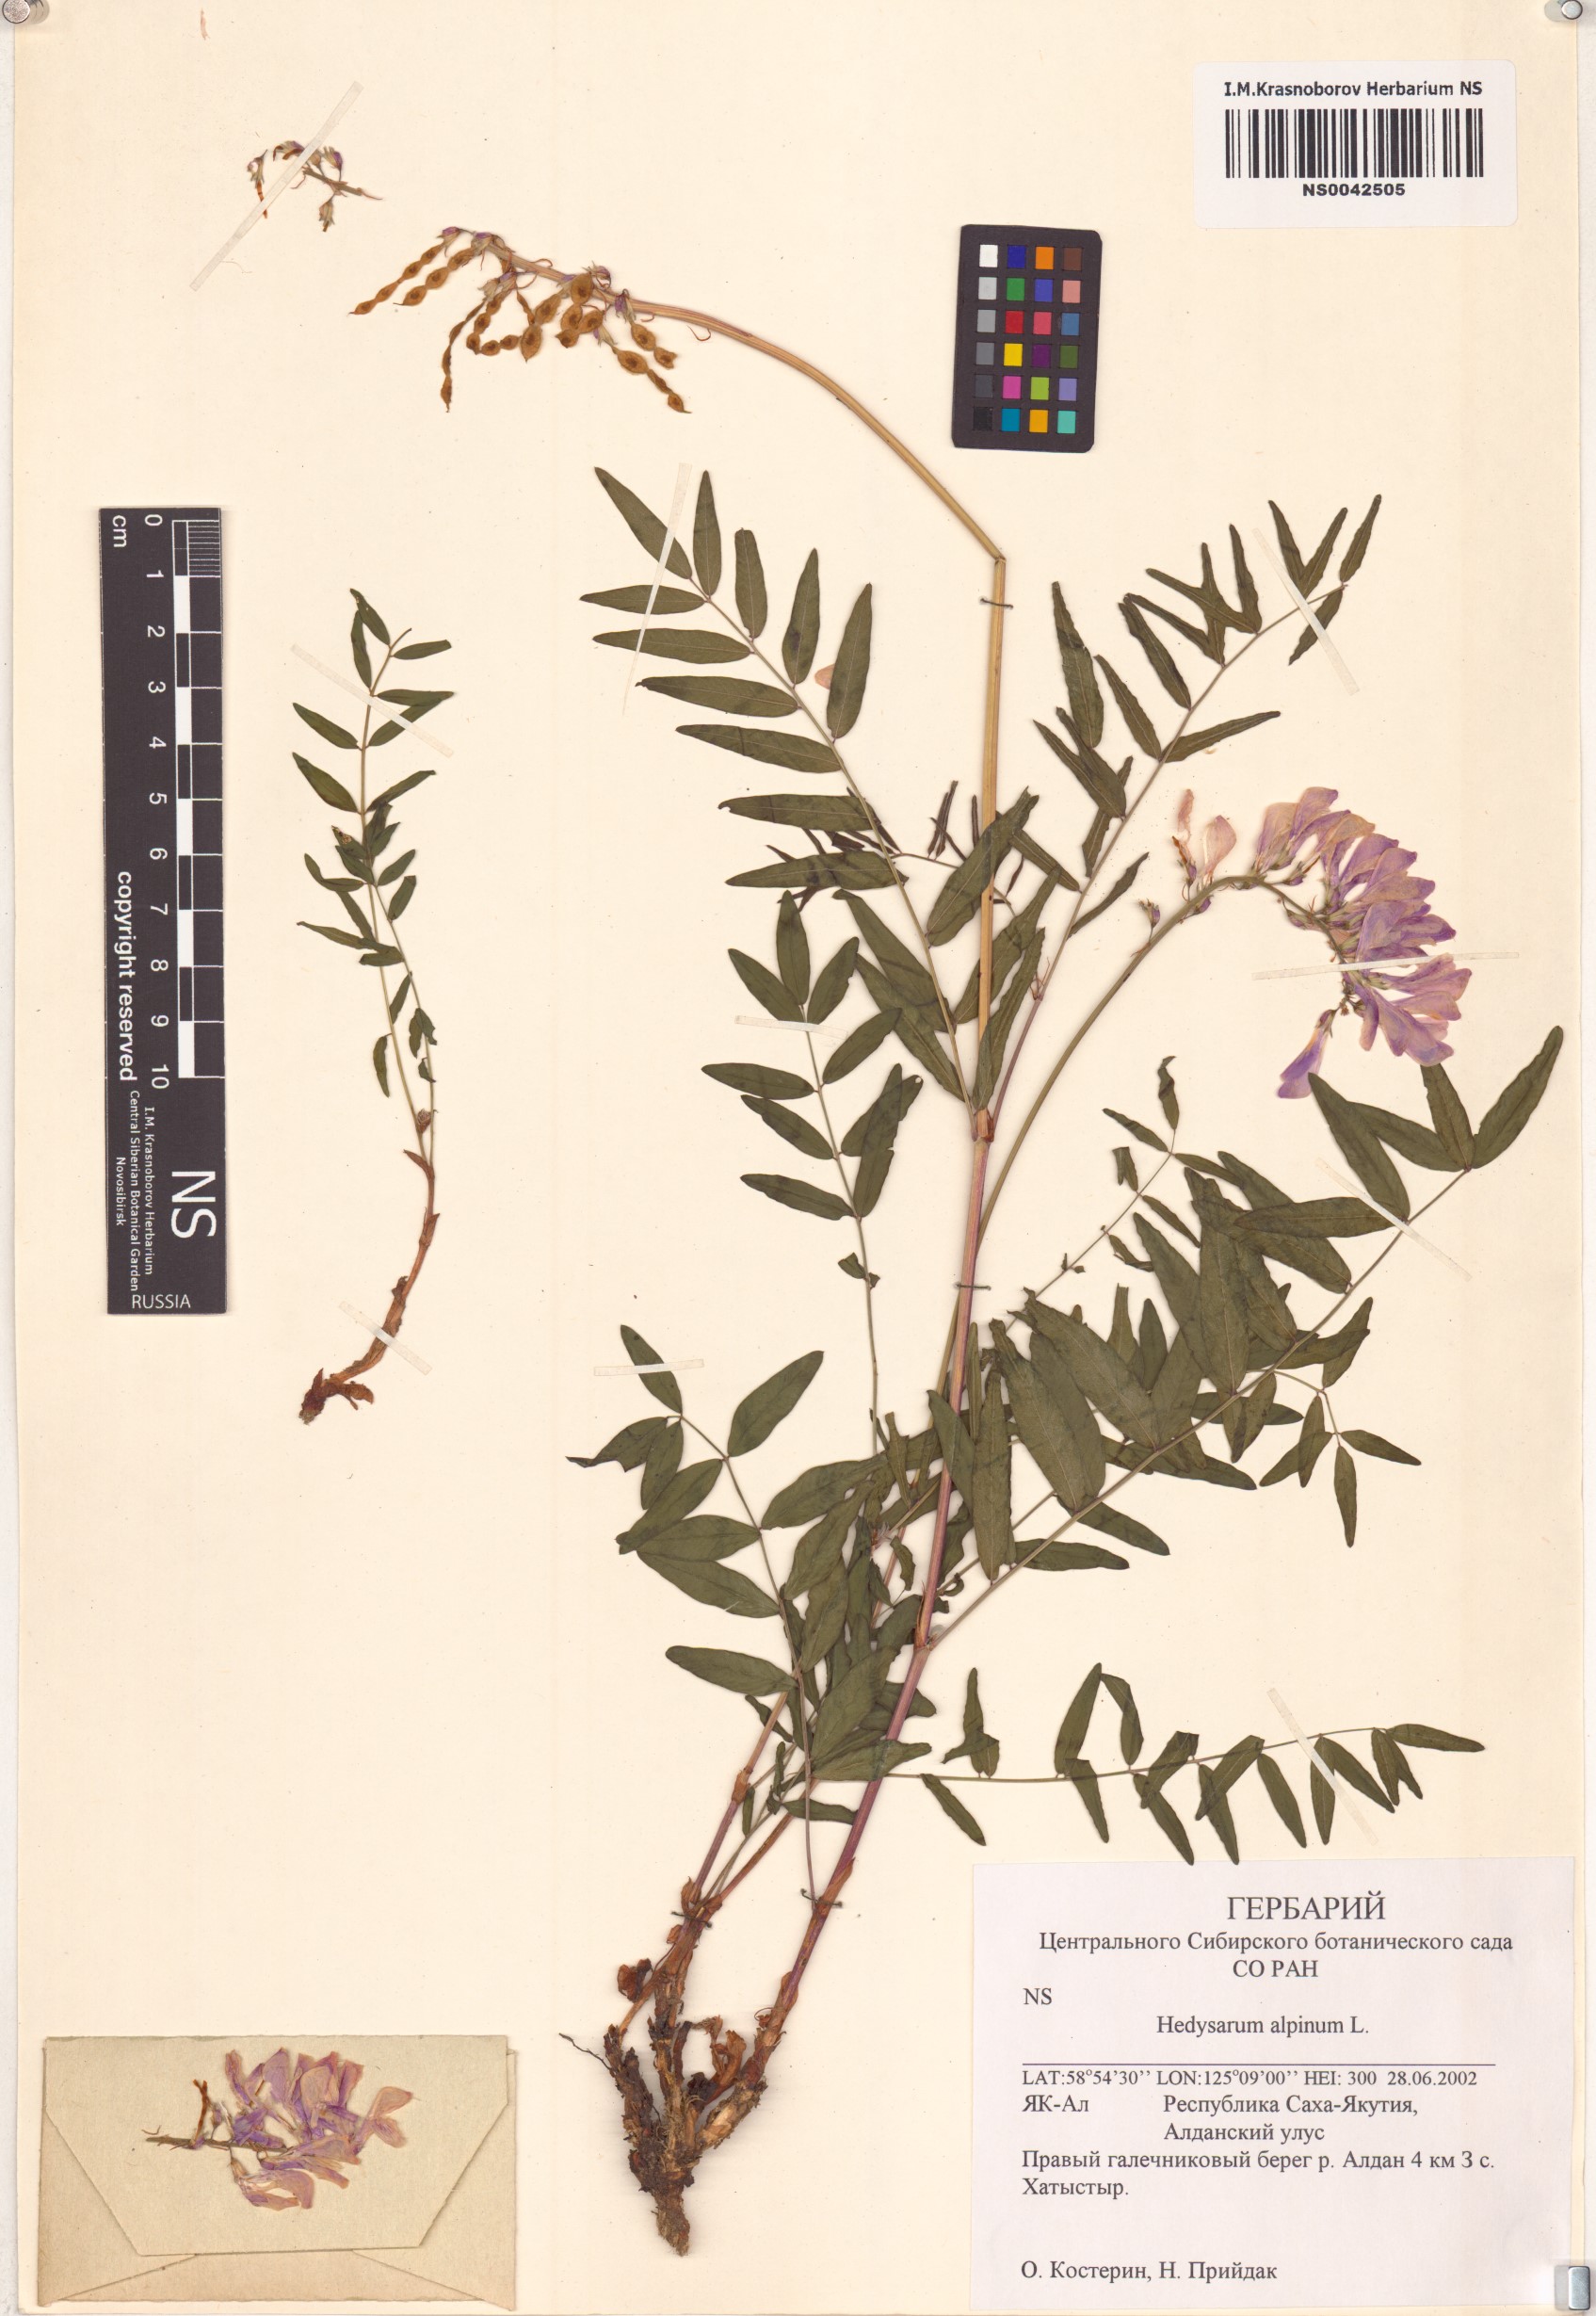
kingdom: Plantae
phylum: Tracheophyta
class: Magnoliopsida
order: Fabales
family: Fabaceae
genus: Hedysarum
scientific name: Hedysarum alpinum
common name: Alpine sweet-vetch
